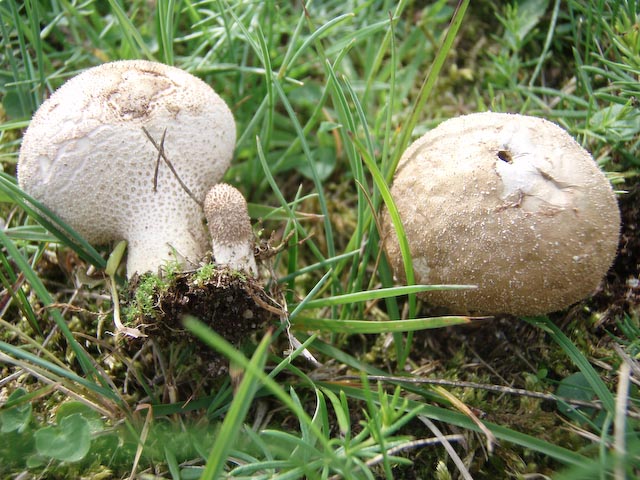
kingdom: Fungi
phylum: Basidiomycota
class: Agaricomycetes
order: Agaricales
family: Lycoperdaceae
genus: Lycoperdon
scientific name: Lycoperdon lividum
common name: mark-støvbold
